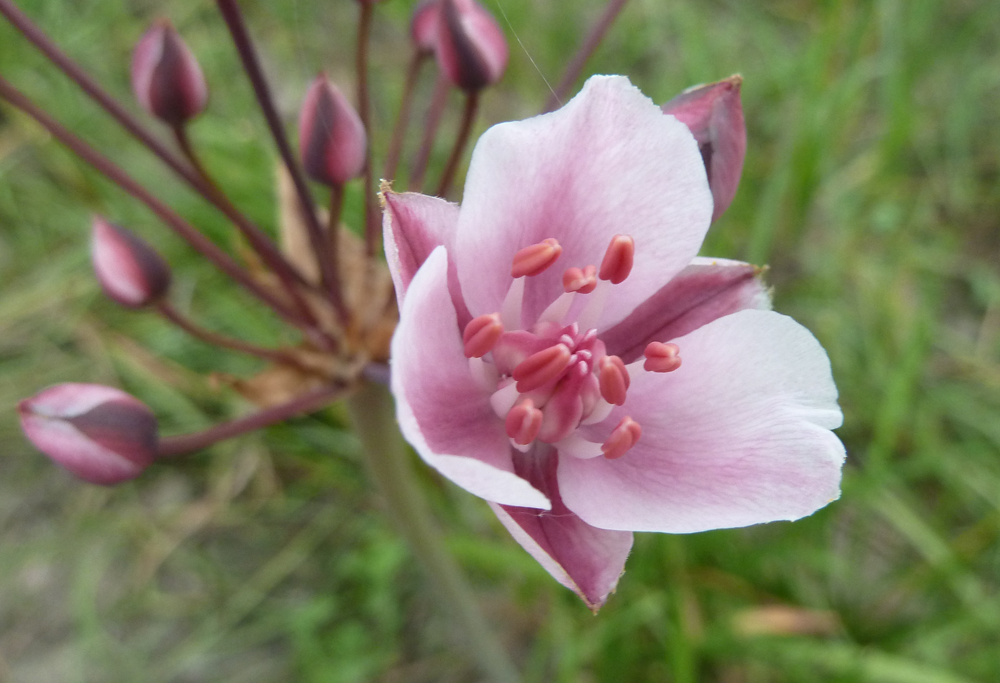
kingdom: Plantae
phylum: Tracheophyta
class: Liliopsida
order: Alismatales
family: Butomaceae
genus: Butomus
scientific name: Butomus umbellatus
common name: Flowering-rush
